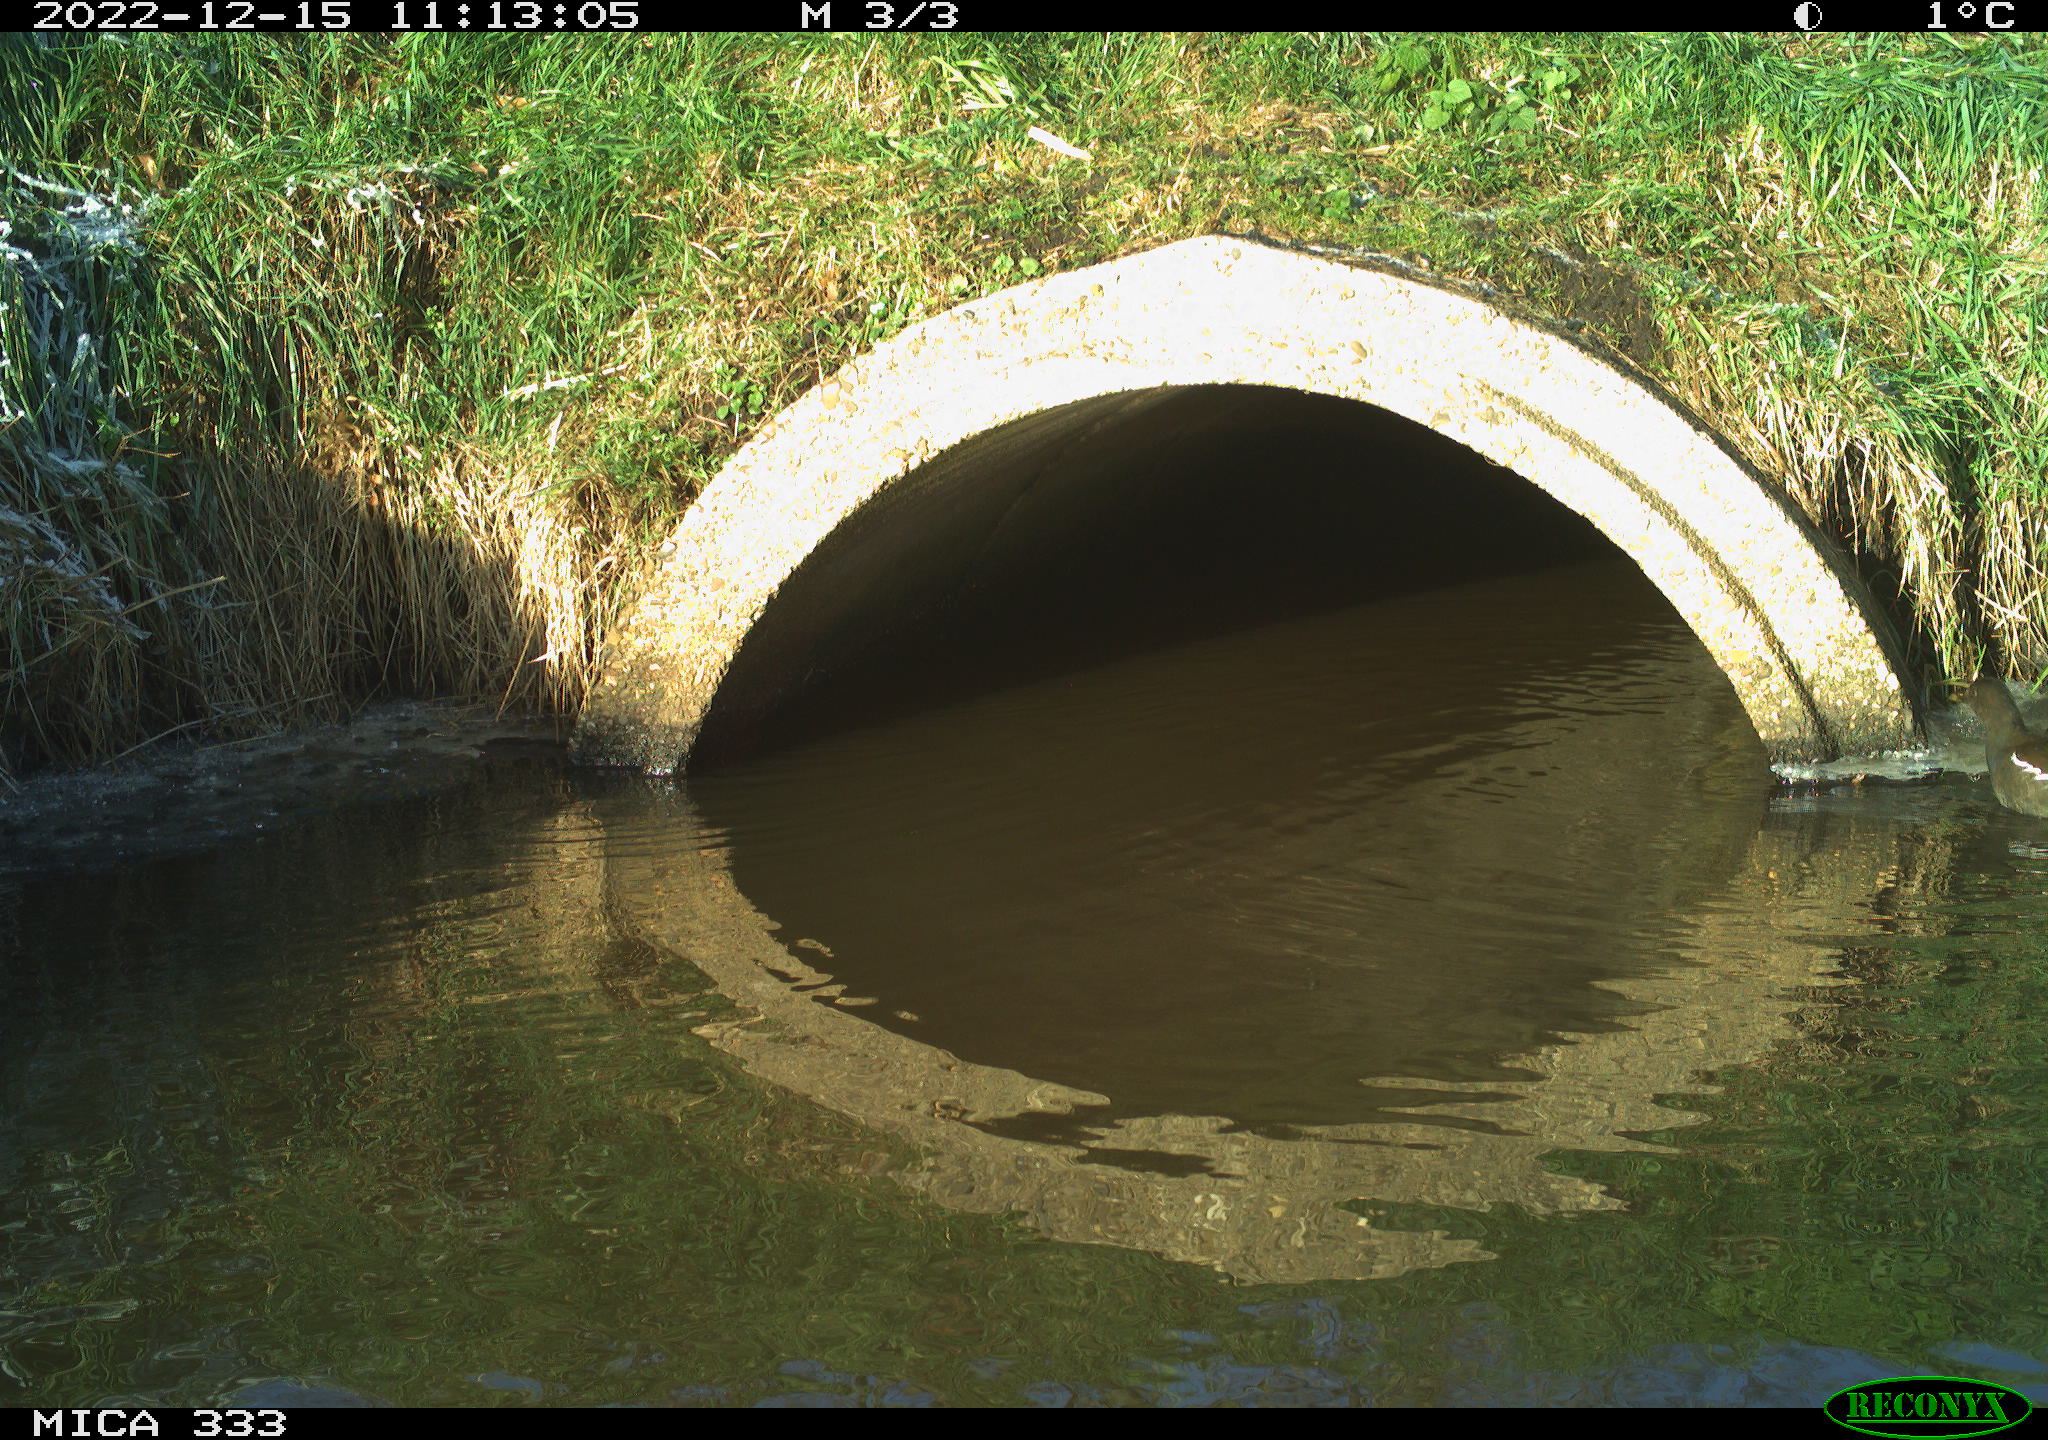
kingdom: Animalia
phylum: Chordata
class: Aves
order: Anseriformes
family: Anatidae
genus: Anas
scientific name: Anas
